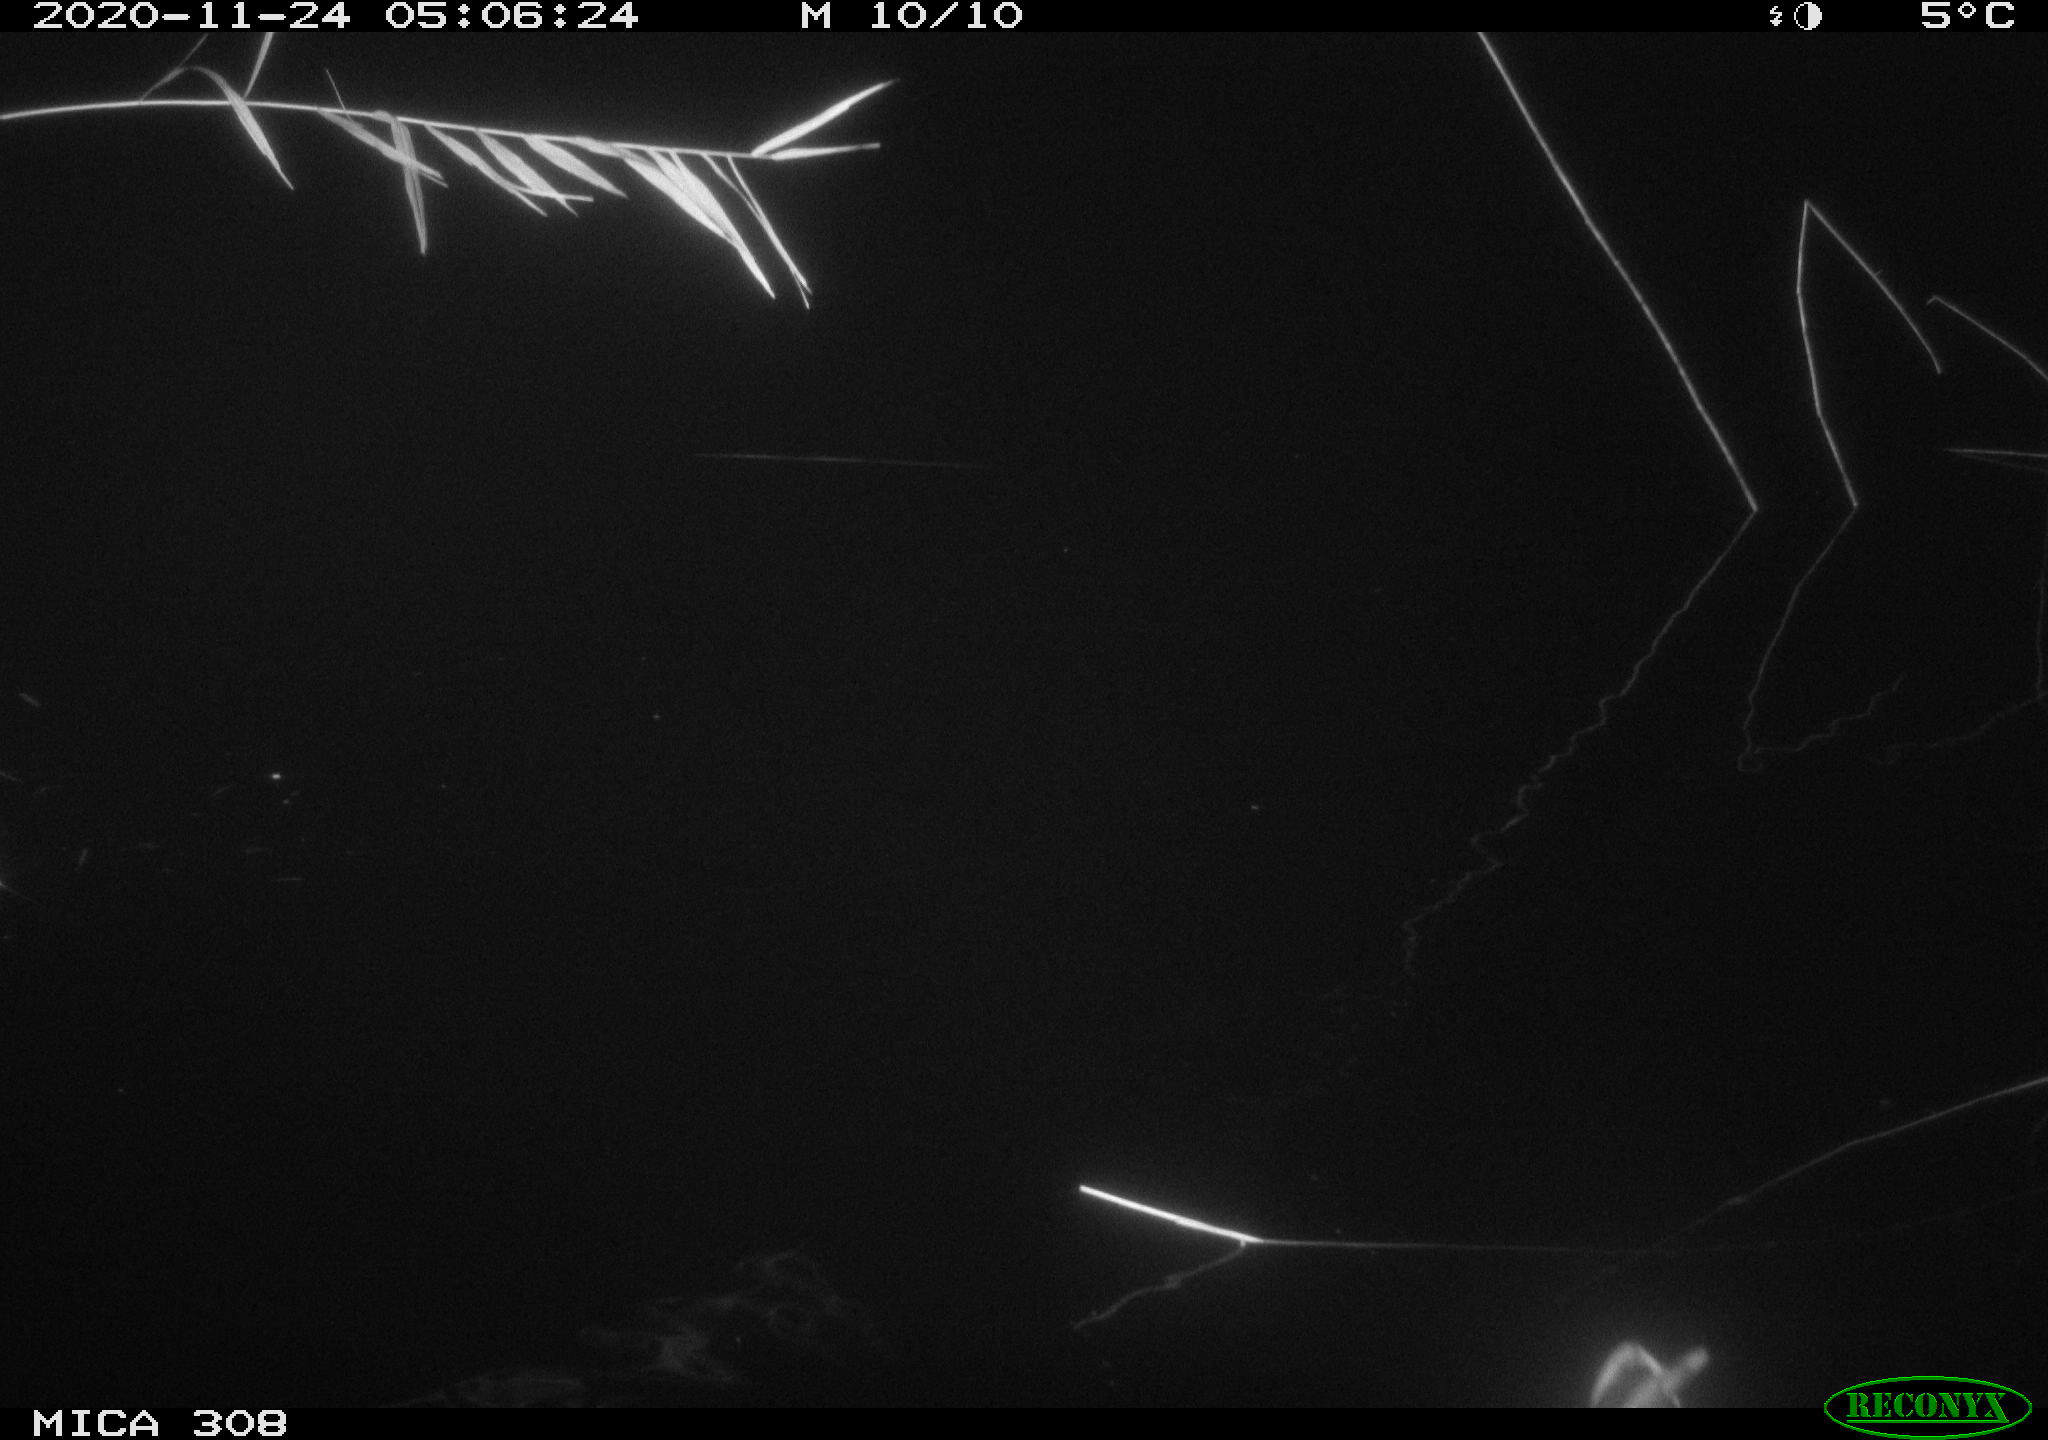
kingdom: Animalia
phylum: Chordata
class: Aves
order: Anseriformes
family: Anatidae
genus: Anas
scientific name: Anas platyrhynchos
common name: Mallard
